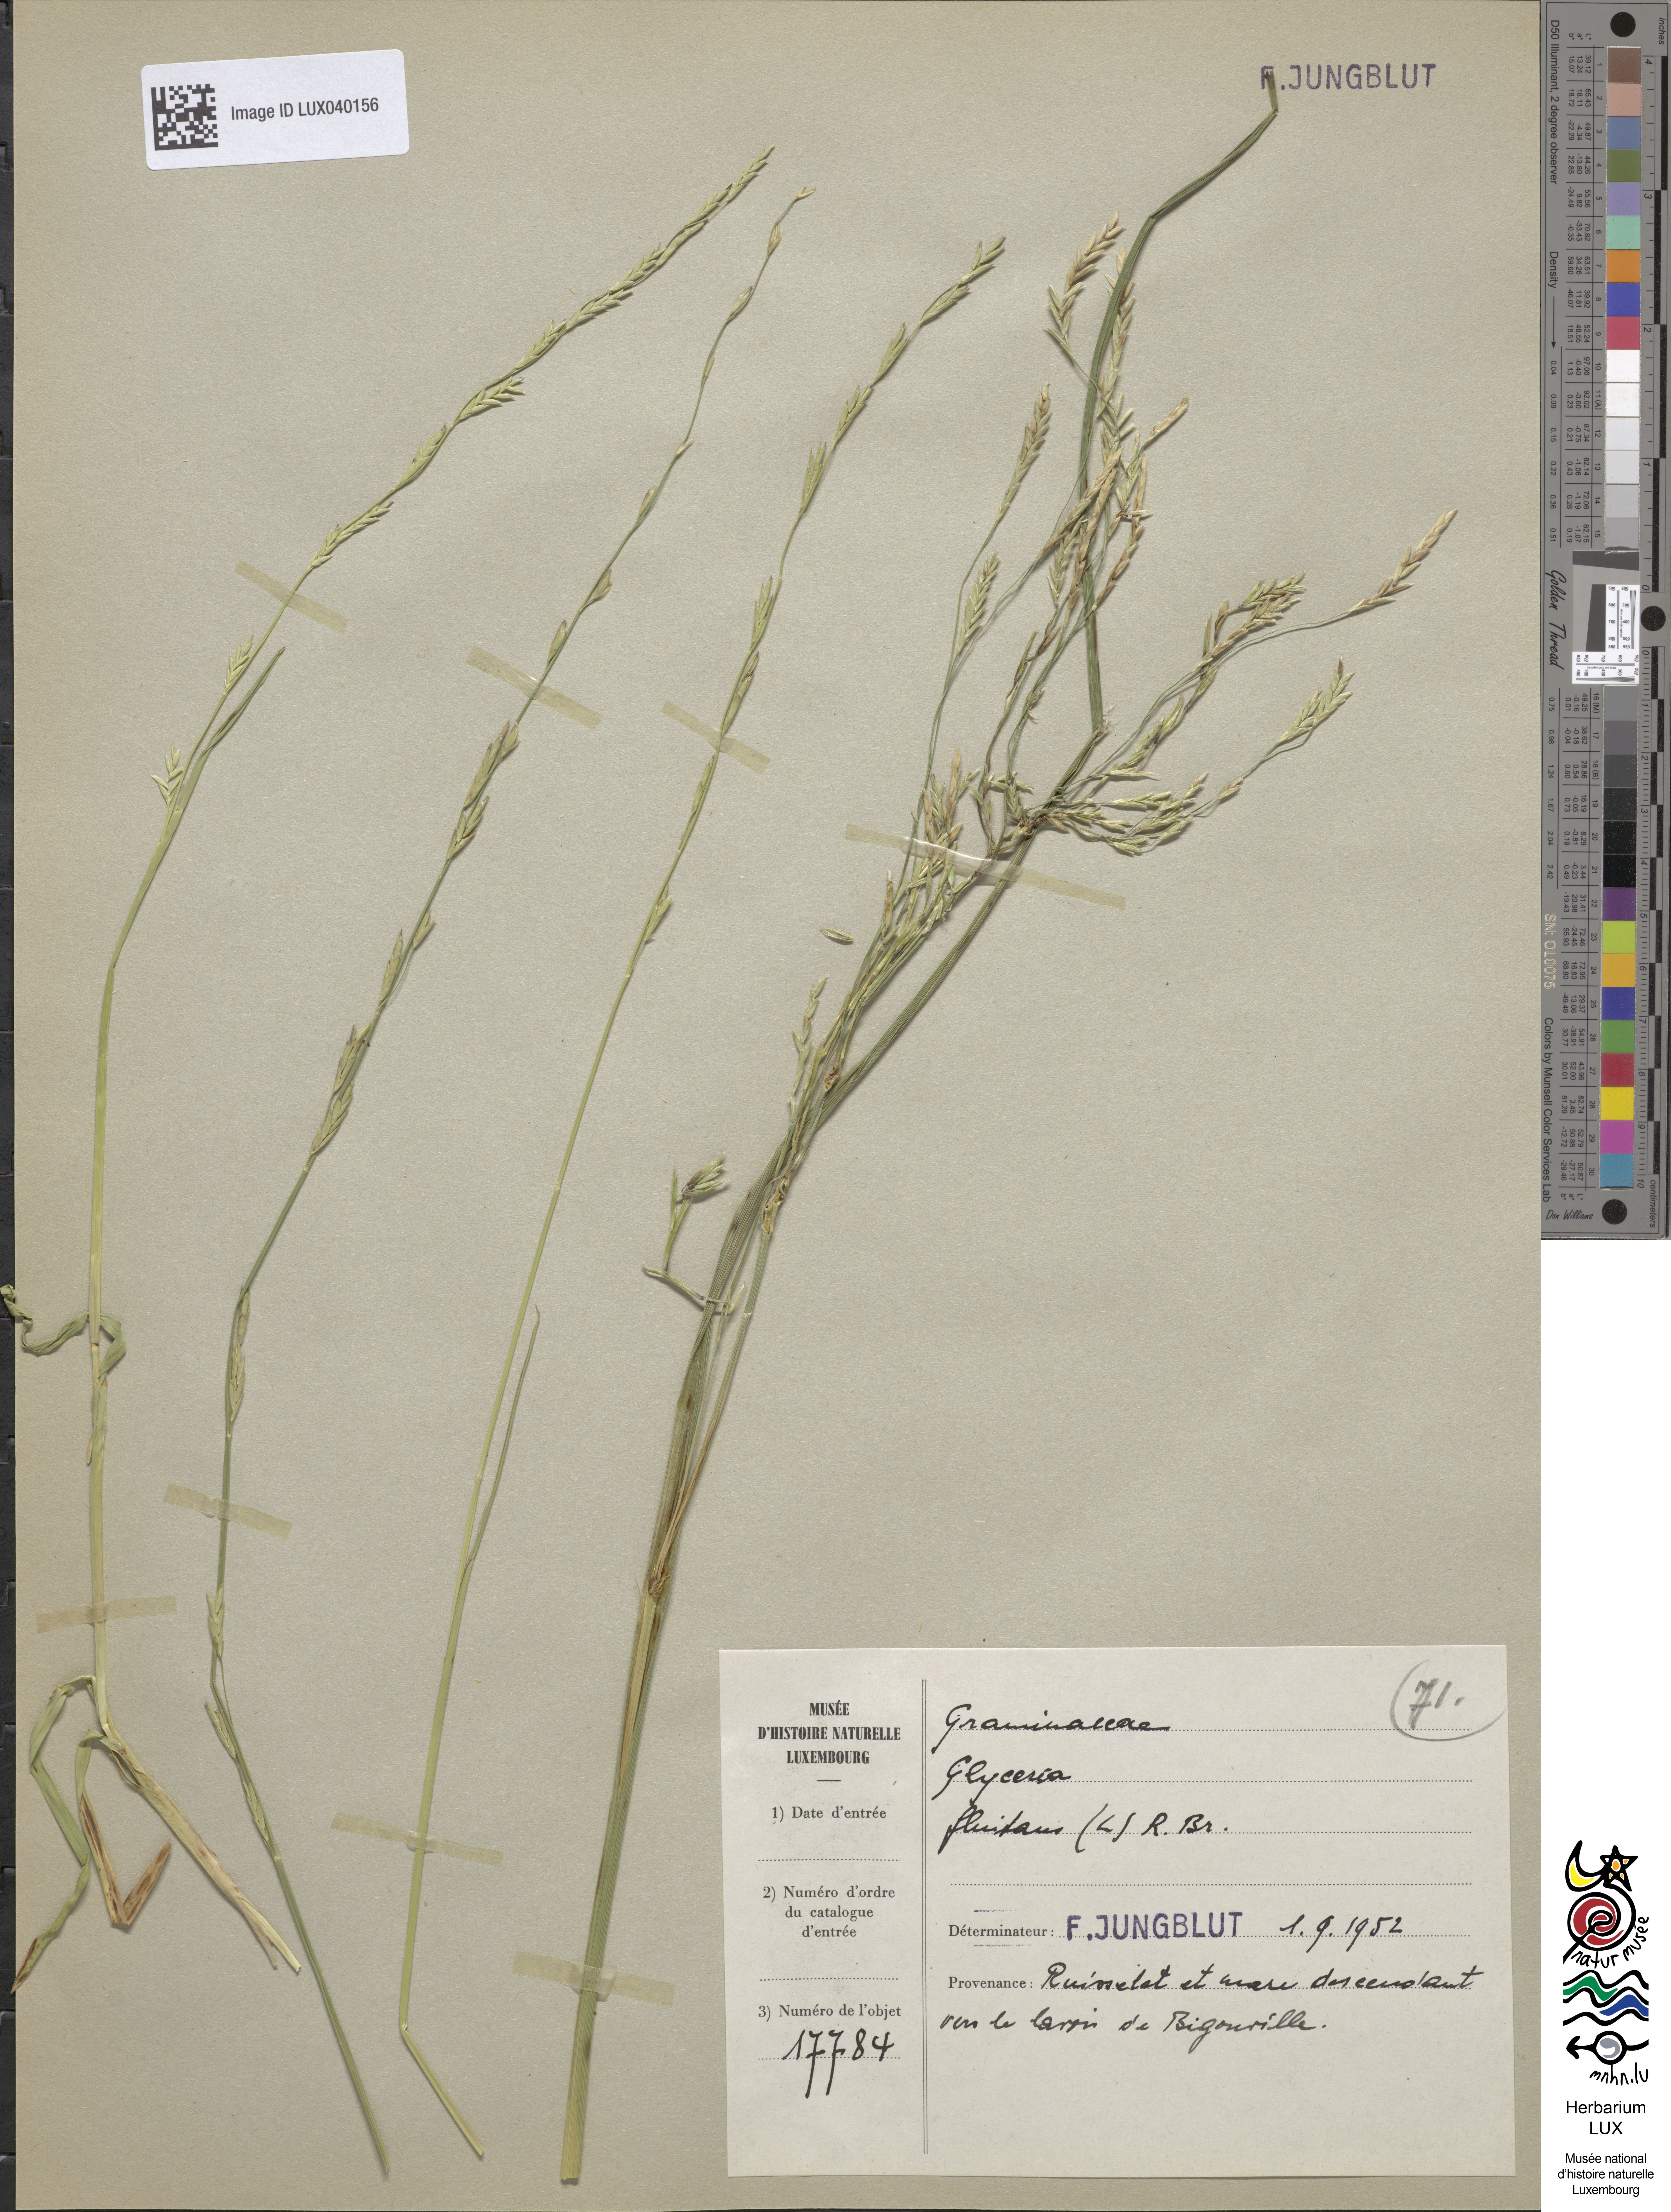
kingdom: Plantae
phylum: Tracheophyta
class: Liliopsida
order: Poales
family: Poaceae
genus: Glyceria
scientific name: Glyceria fluitans
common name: Floating sweet-grass
